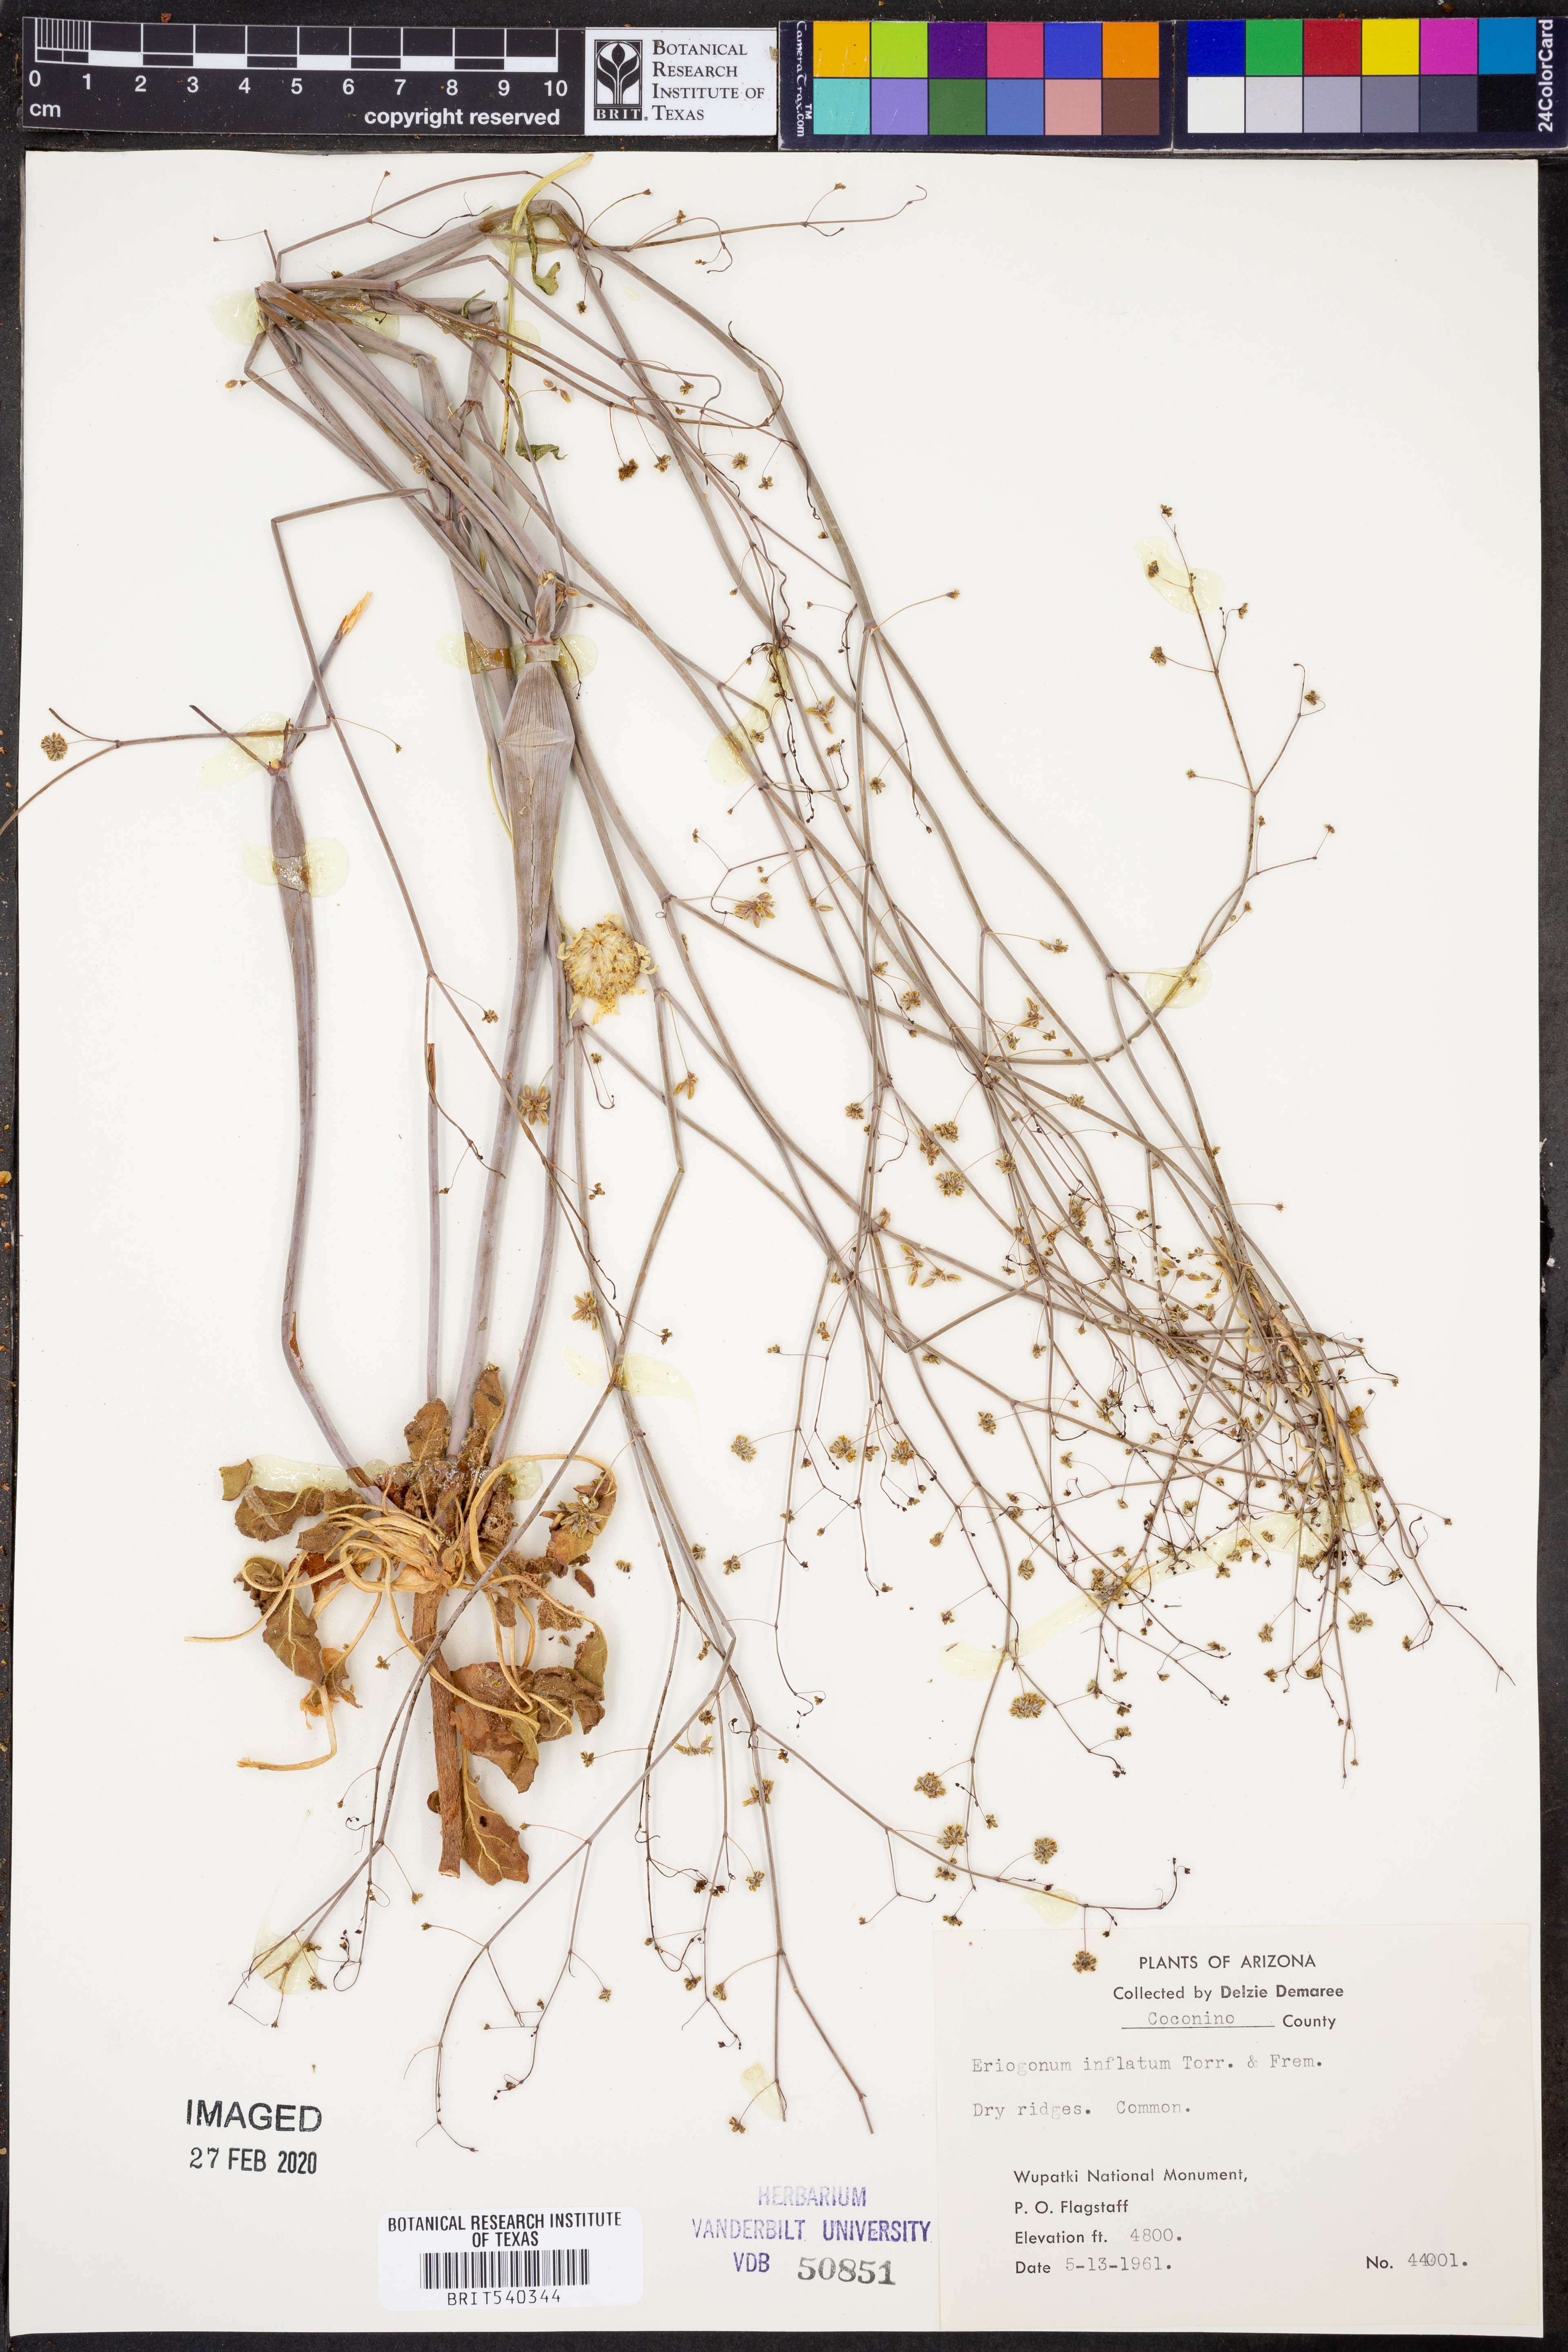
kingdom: Plantae
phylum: Tracheophyta
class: Magnoliopsida
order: Caryophyllales
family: Polygonaceae
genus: Eriogonum
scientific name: Eriogonum inflatum
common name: Desert trumpet
